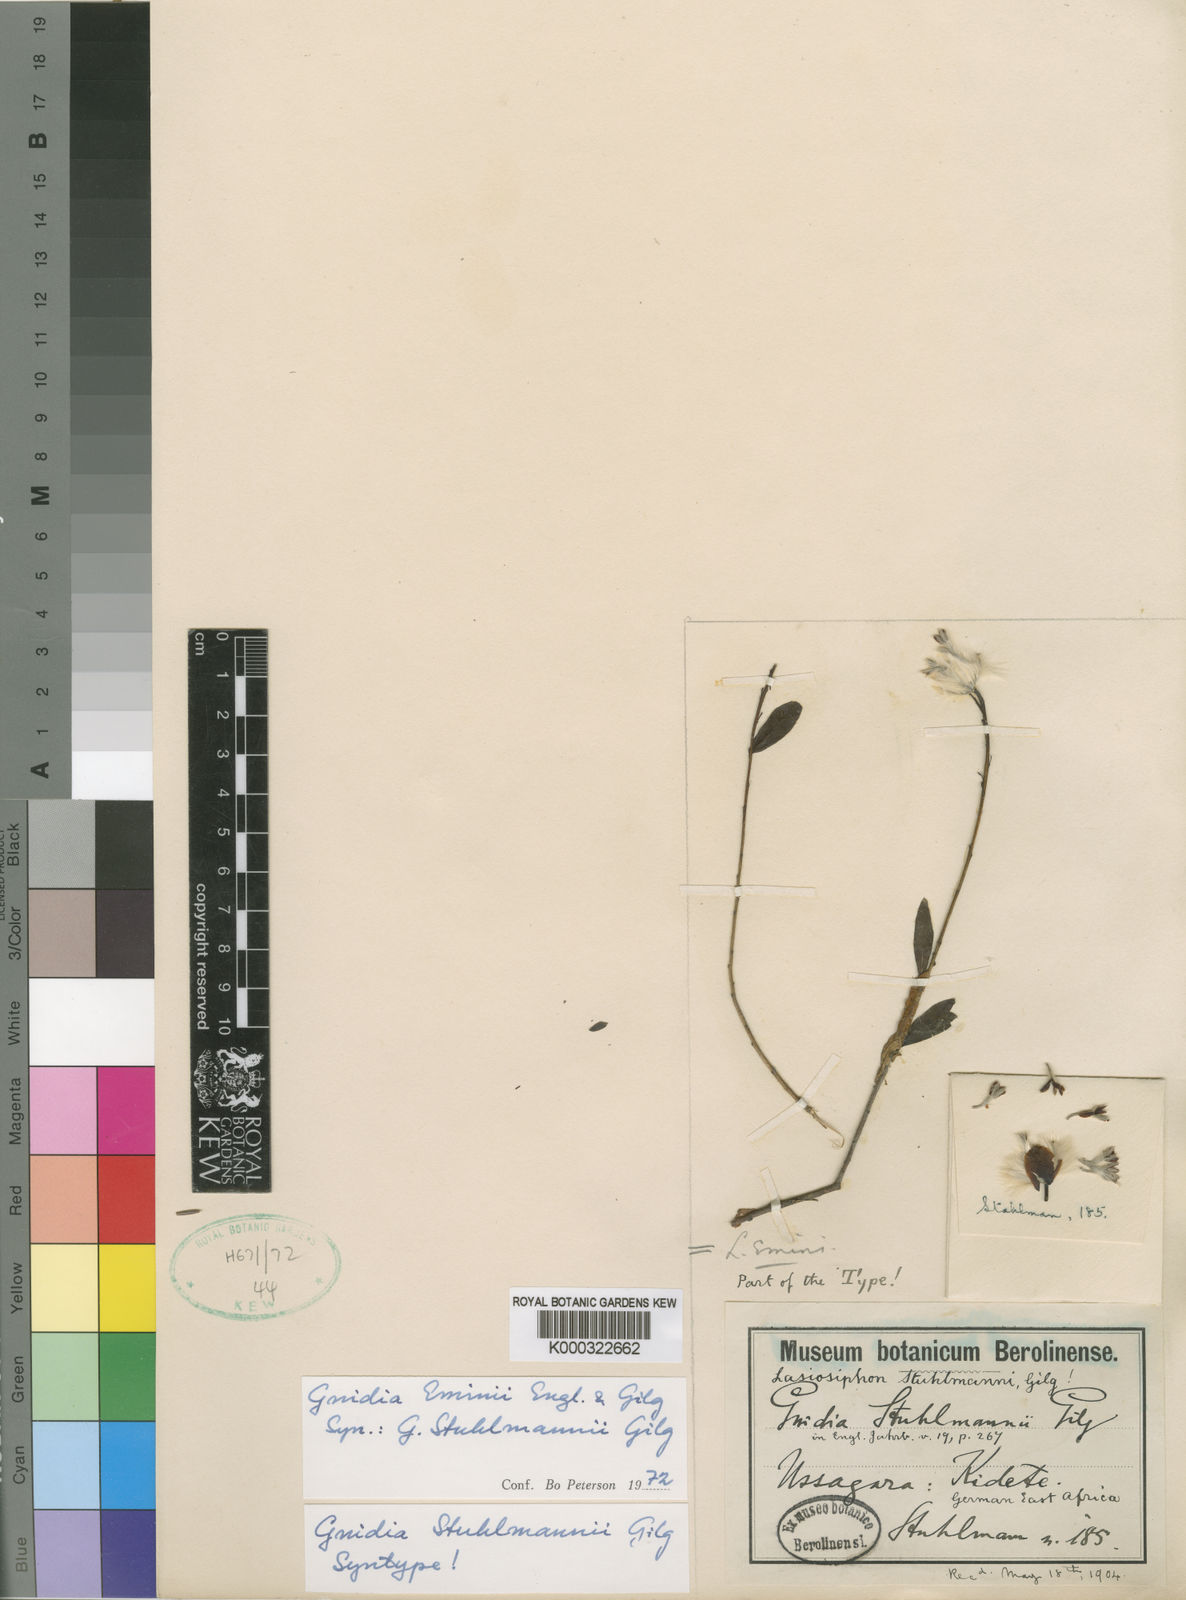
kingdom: Plantae
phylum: Tracheophyta
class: Magnoliopsida
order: Malvales
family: Thymelaeaceae
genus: Gnidia
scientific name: Gnidia eminii
